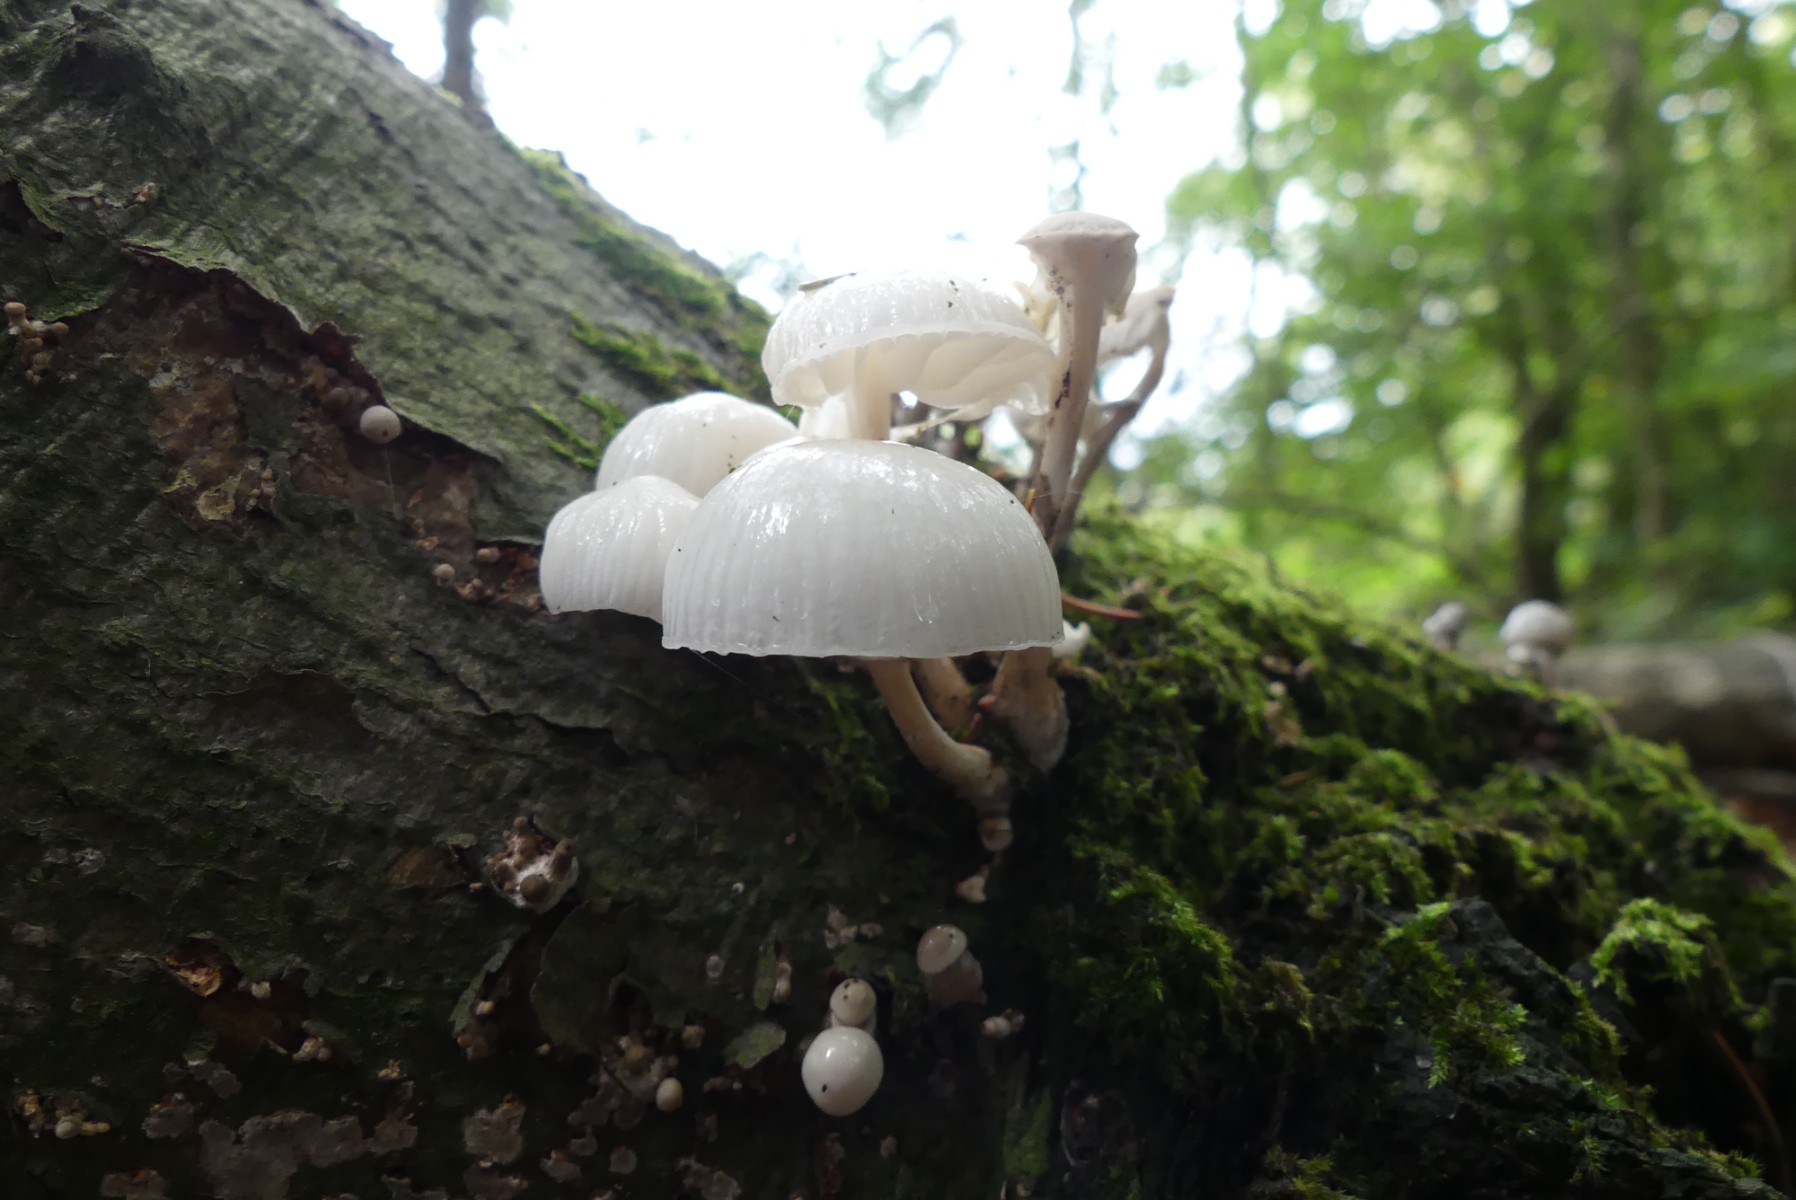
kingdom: Fungi
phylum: Basidiomycota
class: Agaricomycetes
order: Agaricales
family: Physalacriaceae
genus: Mucidula
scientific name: Mucidula mucida
